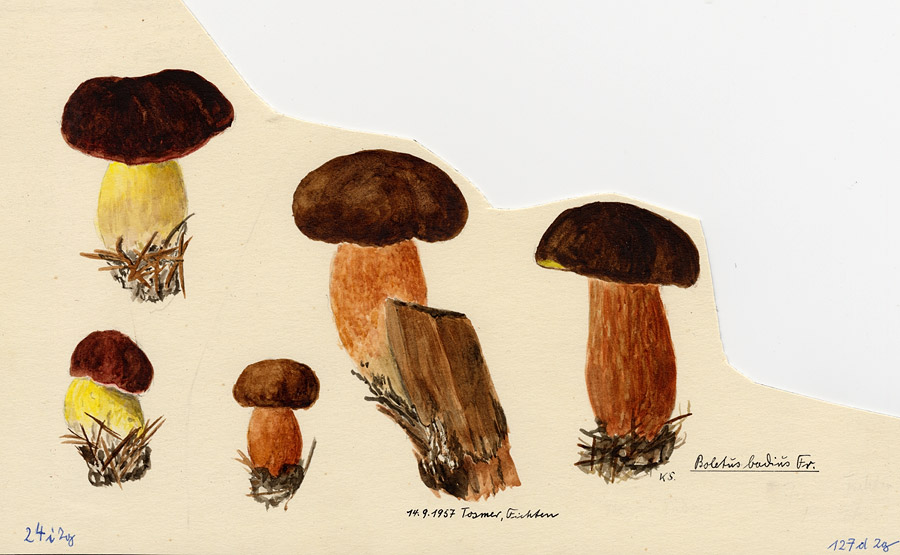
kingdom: Fungi
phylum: Basidiomycota
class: Agaricomycetes
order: Boletales
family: Boletaceae
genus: Imleria
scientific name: Imleria badia
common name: Bay bolete
